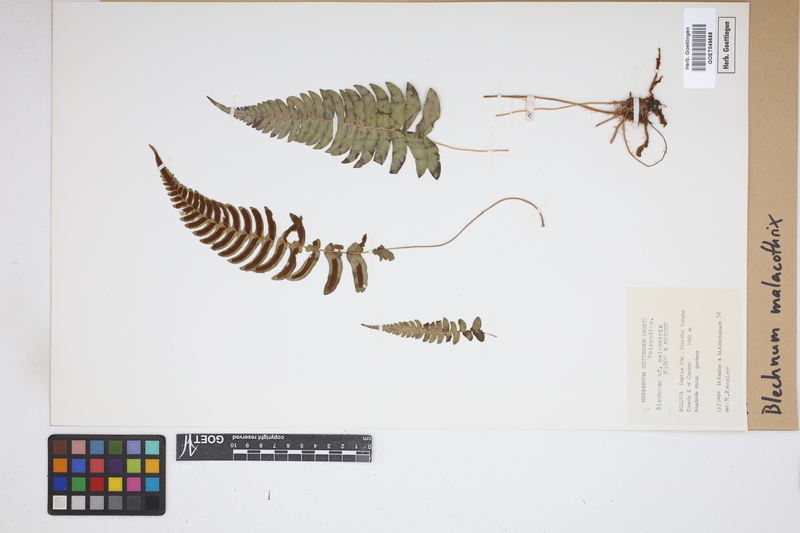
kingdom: Plantae
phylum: Tracheophyta
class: Polypodiopsida
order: Polypodiales
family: Blechnaceae
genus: Blechnum
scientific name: Blechnum malacothrix
